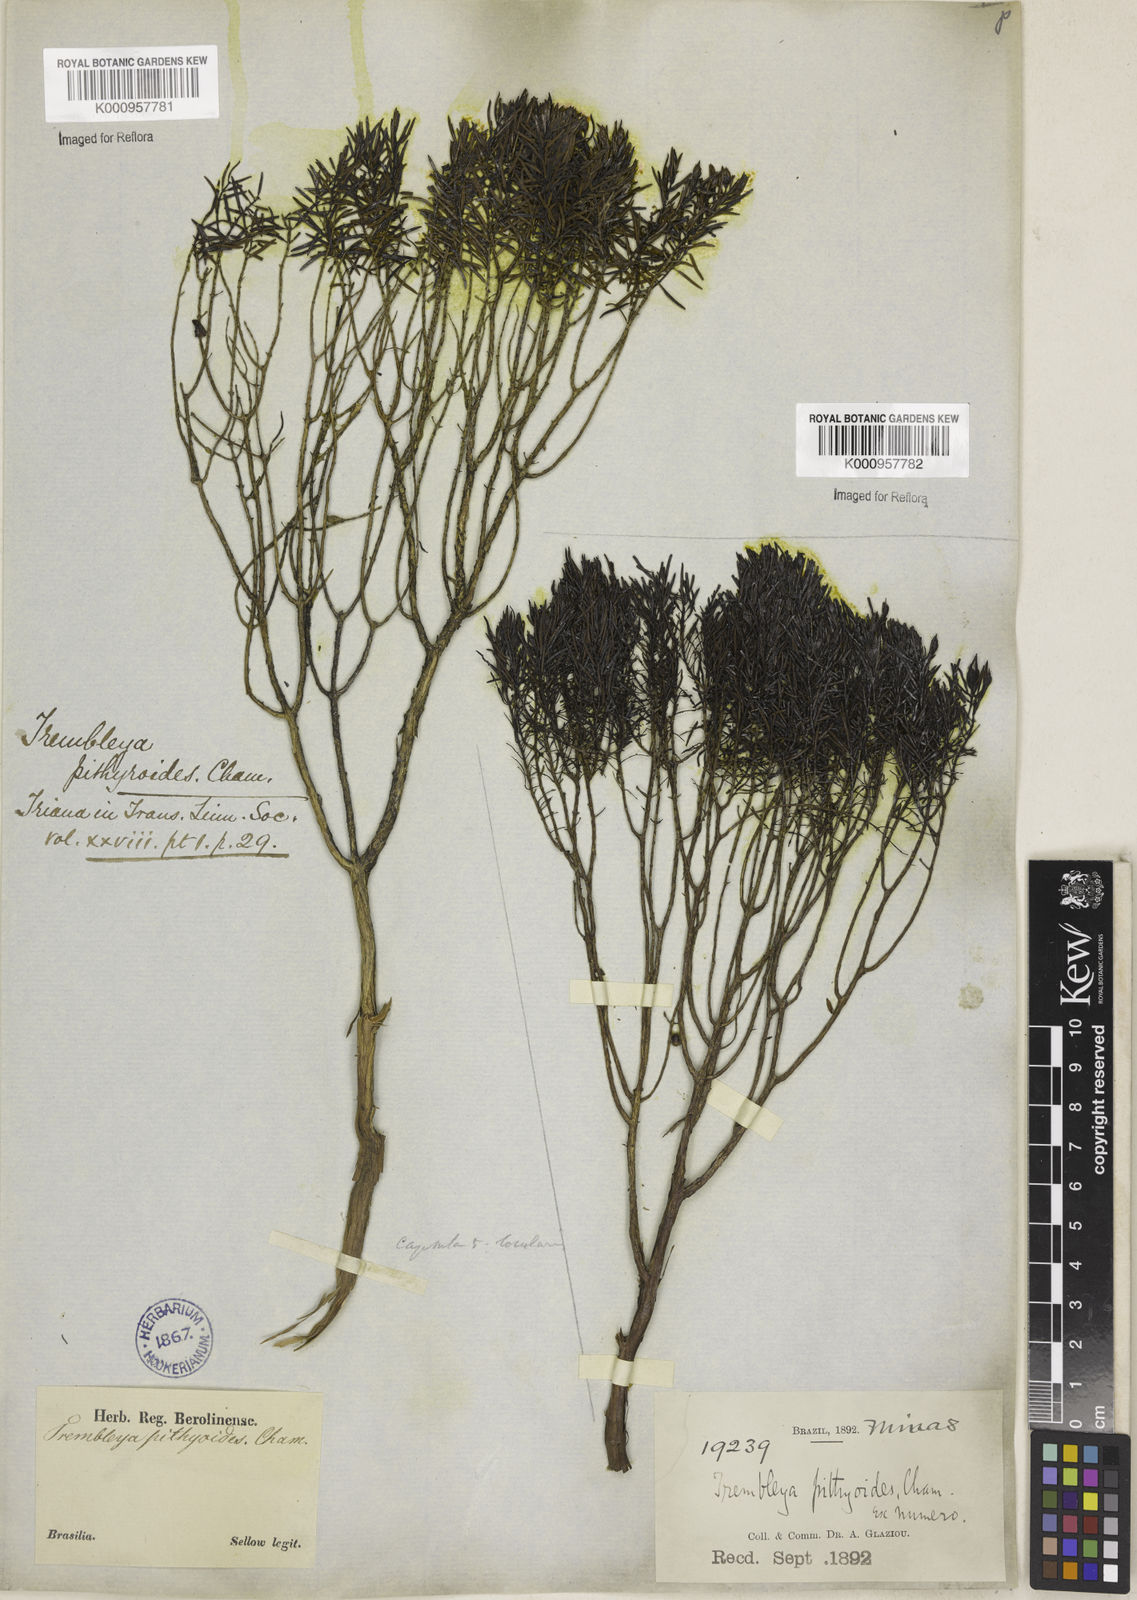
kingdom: Plantae
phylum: Tracheophyta
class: Magnoliopsida
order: Myrtales
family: Melastomataceae
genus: Microlicia
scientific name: Microlicia
